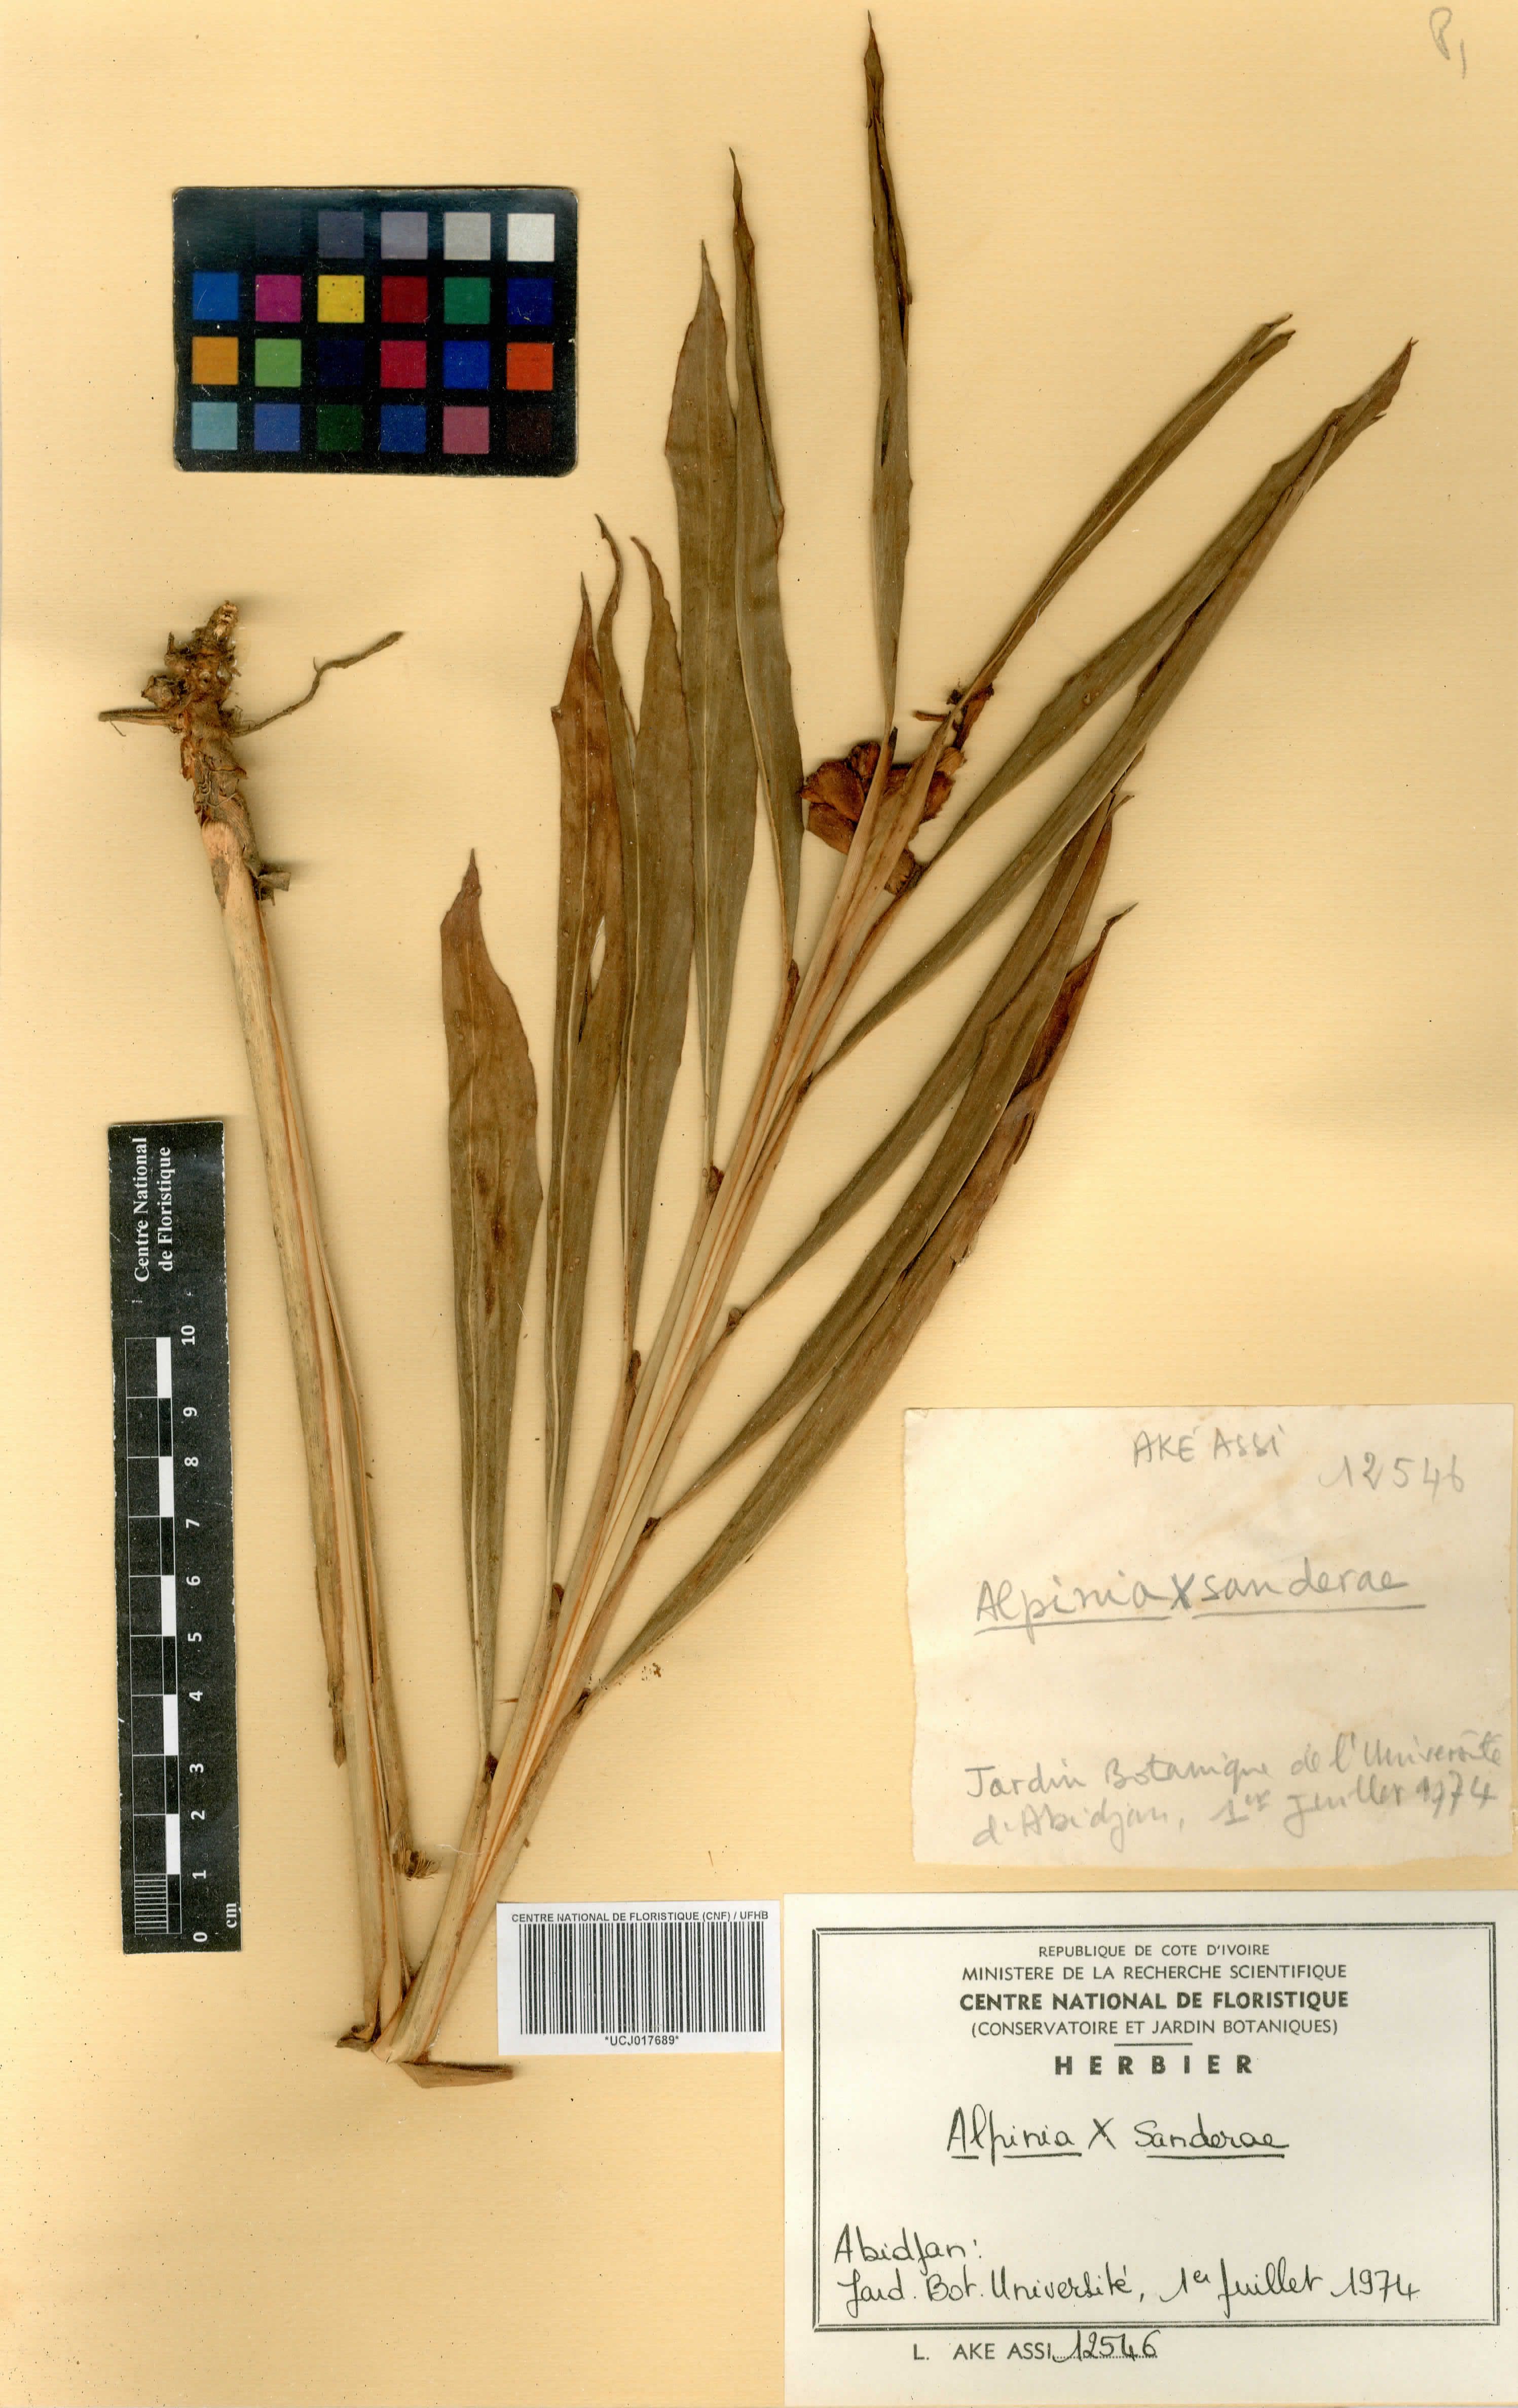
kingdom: Plantae
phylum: Tracheophyta
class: Liliopsida
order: Zingiberales
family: Zingiberaceae
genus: Alpinia
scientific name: Alpinia vittata
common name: Variegate-ginger
